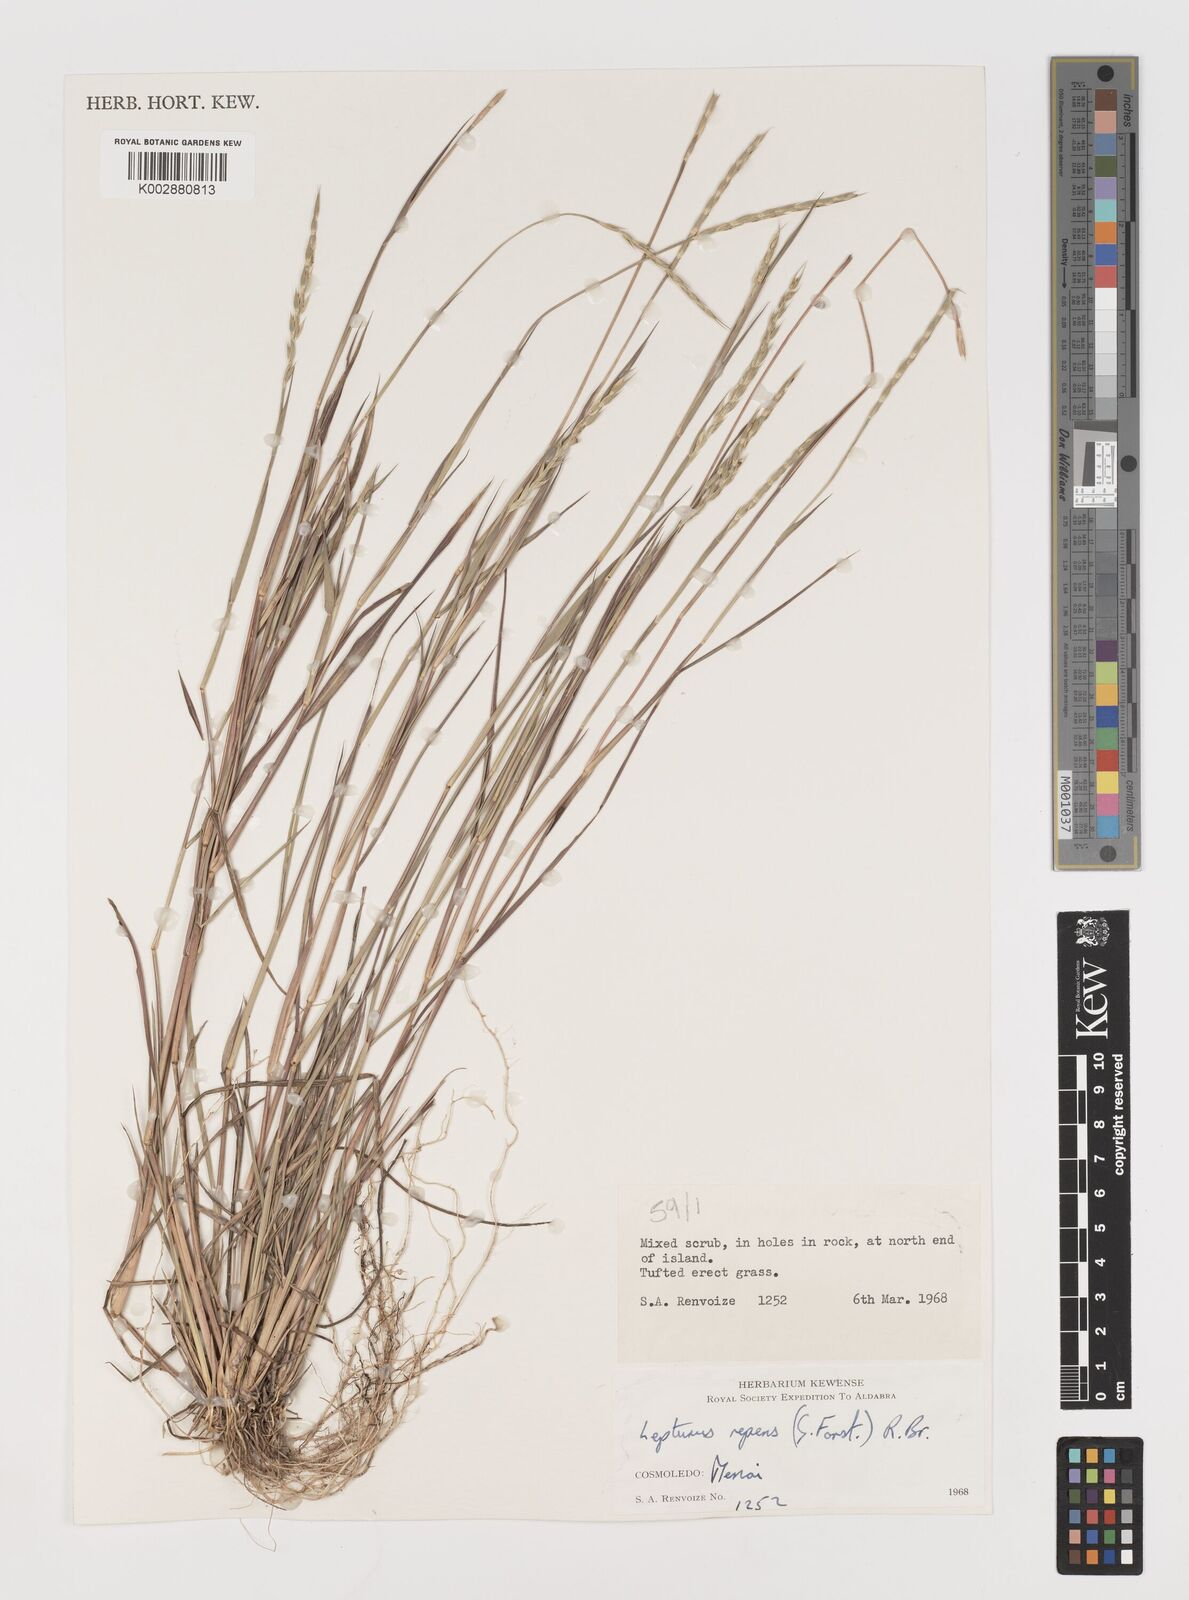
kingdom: Plantae
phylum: Tracheophyta
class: Liliopsida
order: Poales
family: Poaceae
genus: Lepturus
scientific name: Lepturus repens
